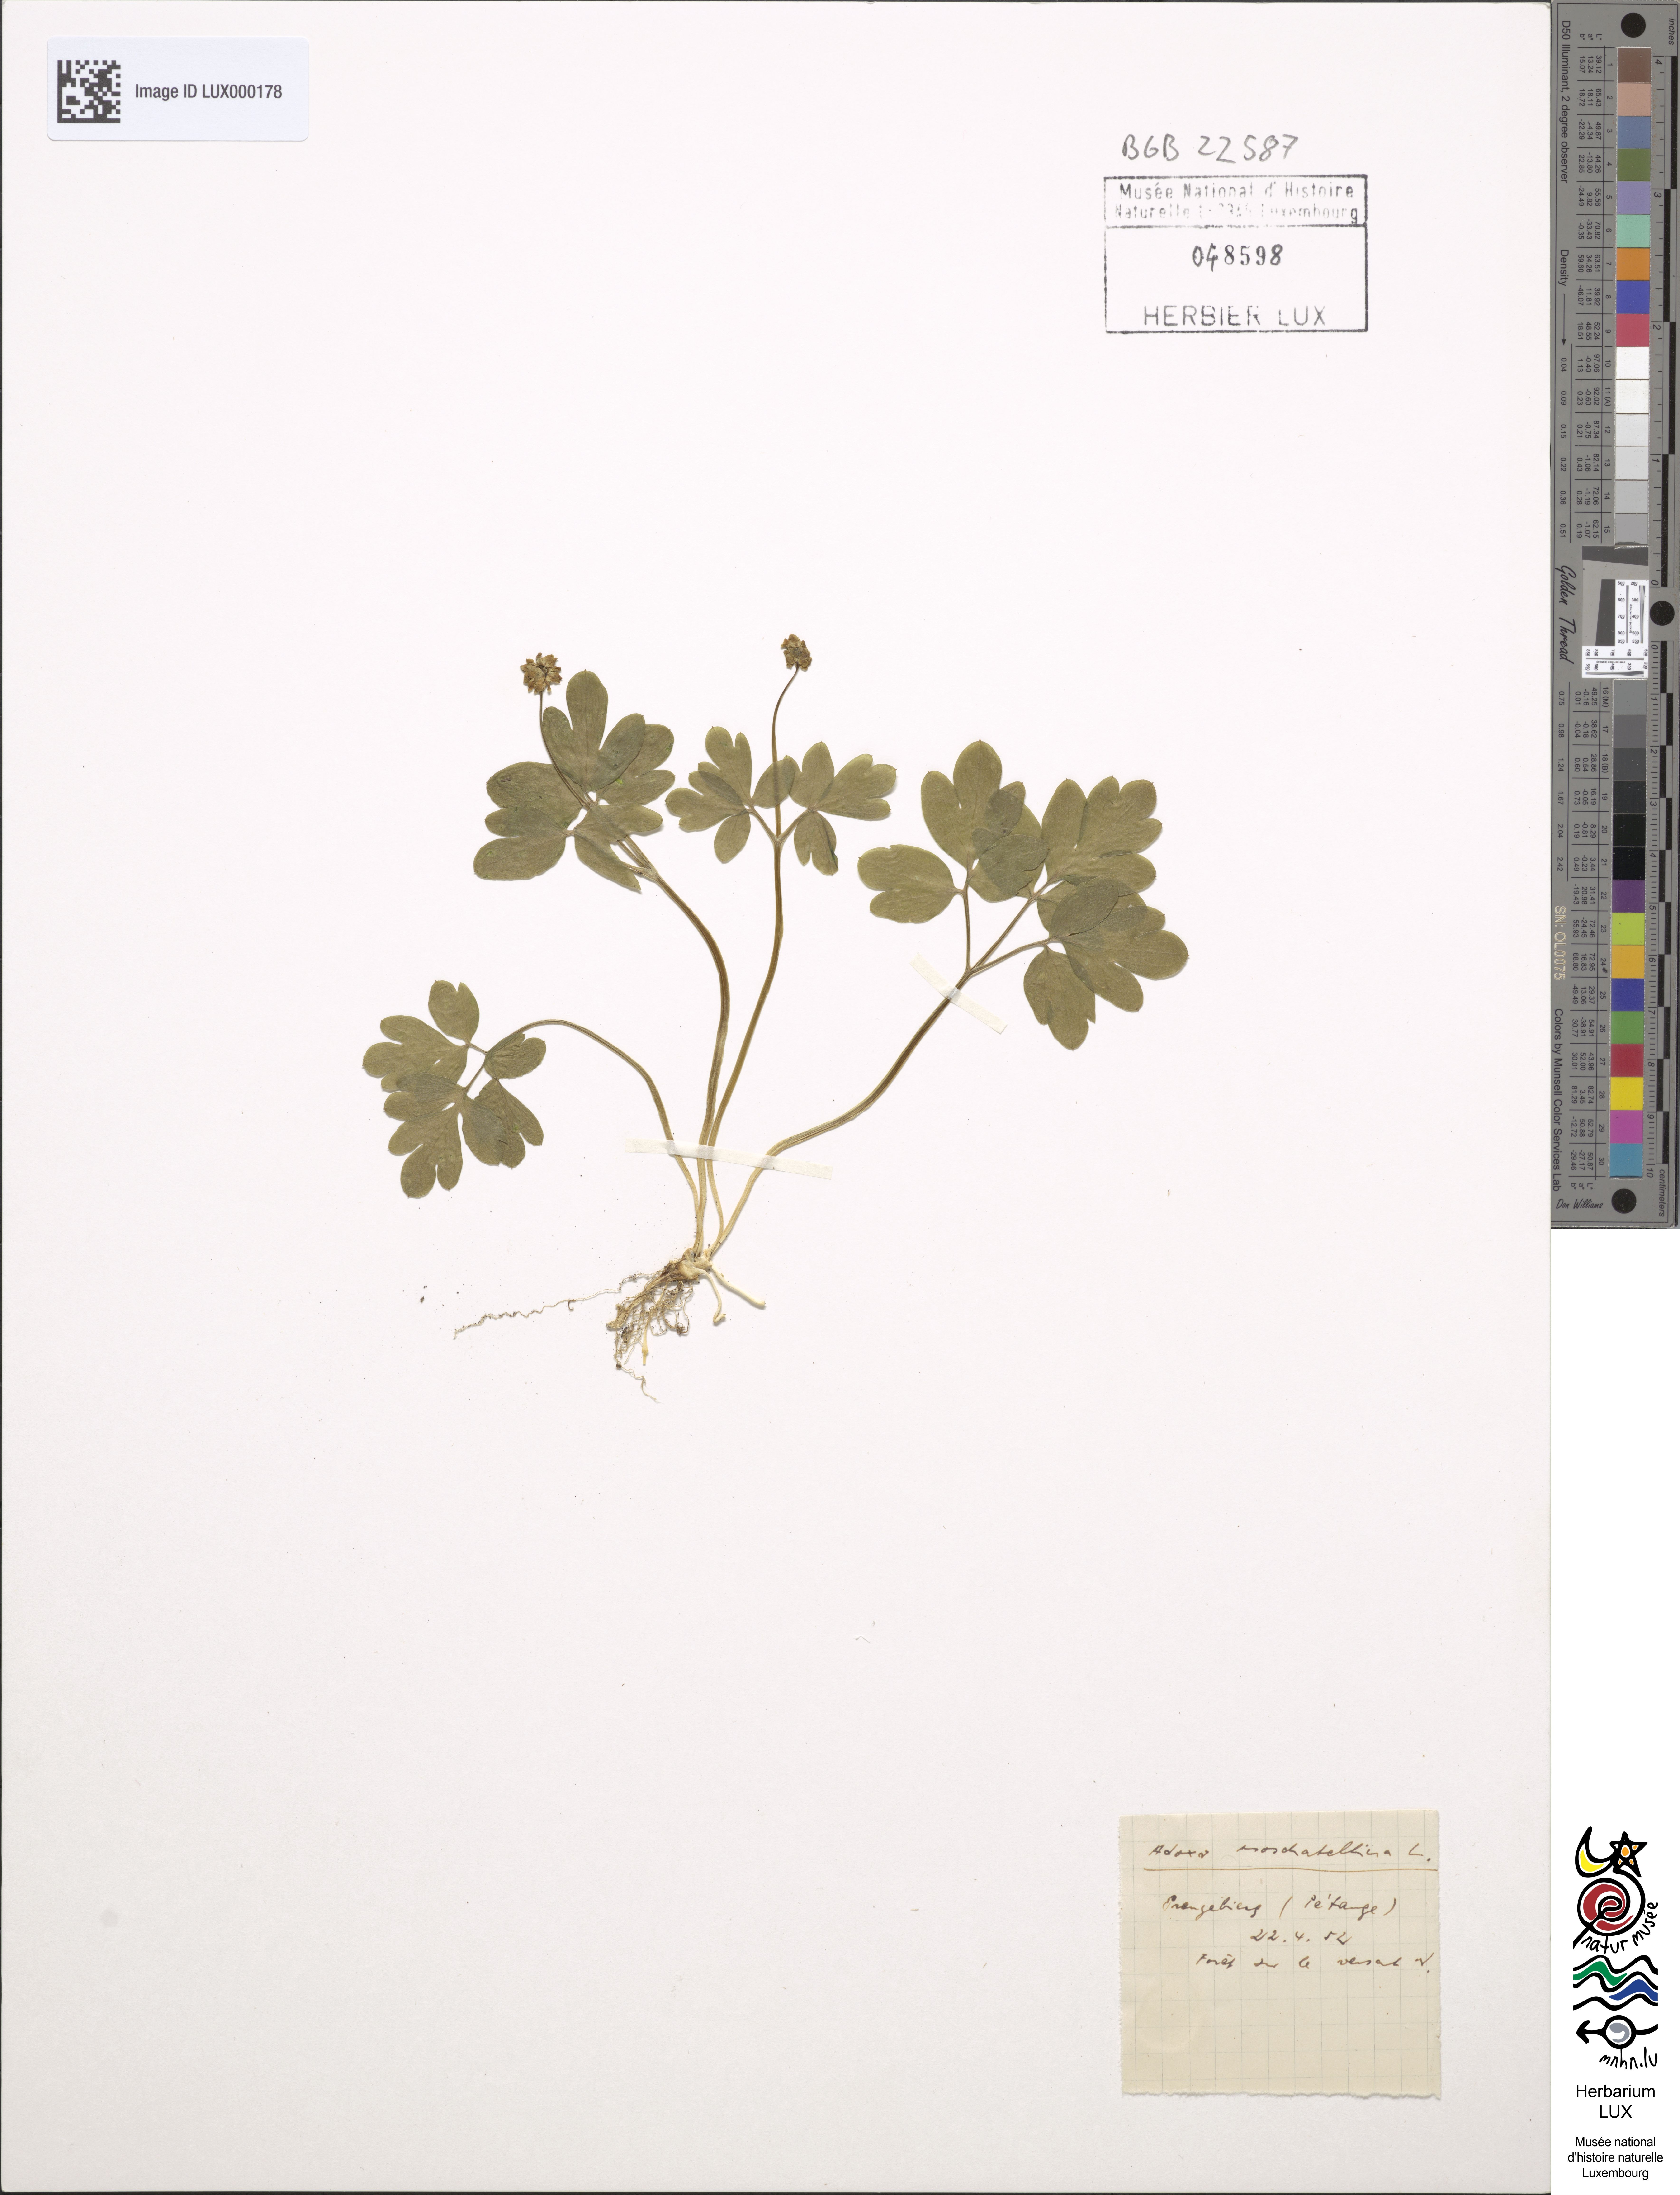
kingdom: Plantae
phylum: Tracheophyta
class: Magnoliopsida
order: Dipsacales
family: Viburnaceae
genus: Adoxa
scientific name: Adoxa moschatellina
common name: Moschatel
